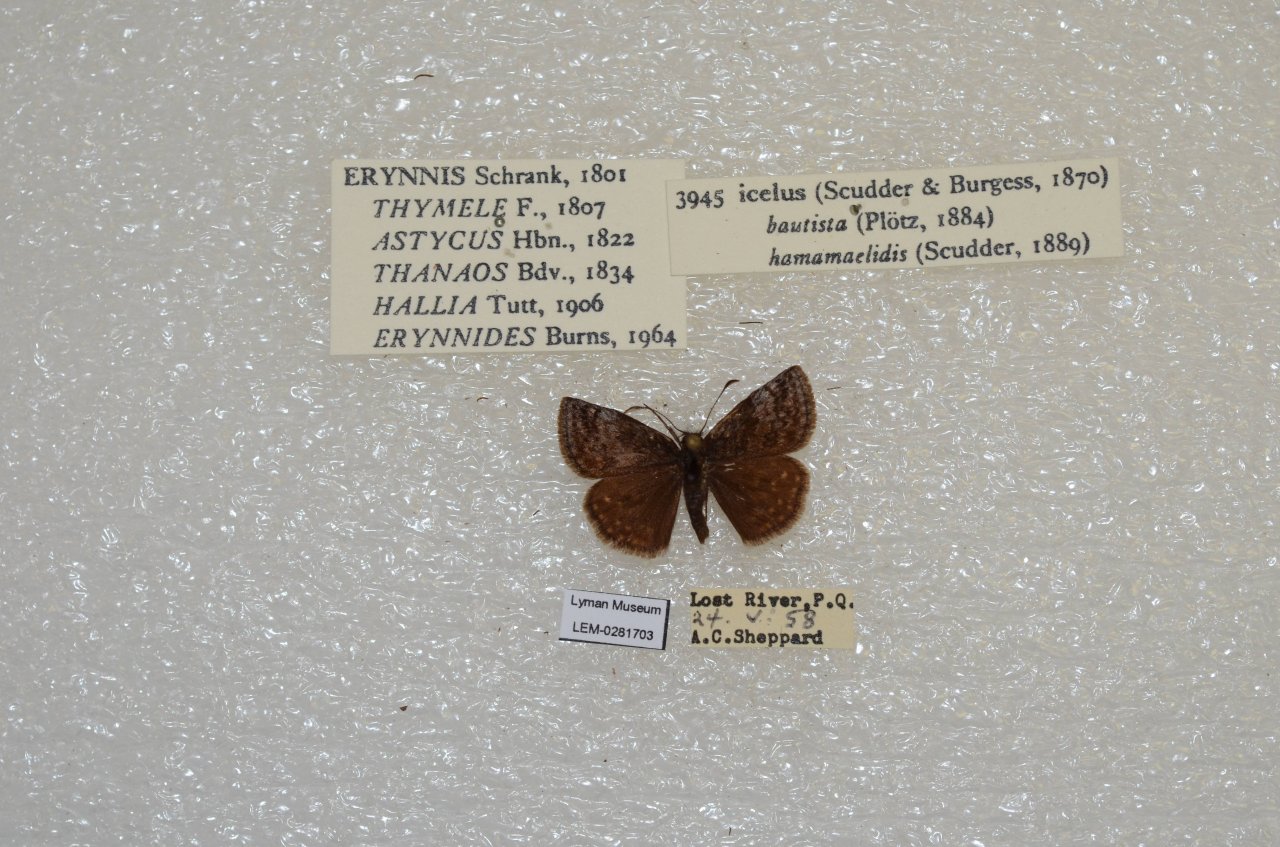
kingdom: Animalia
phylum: Arthropoda
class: Insecta
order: Lepidoptera
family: Hesperiidae
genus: Erynnis
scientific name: Erynnis icelus
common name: Dreamy Duskywing
